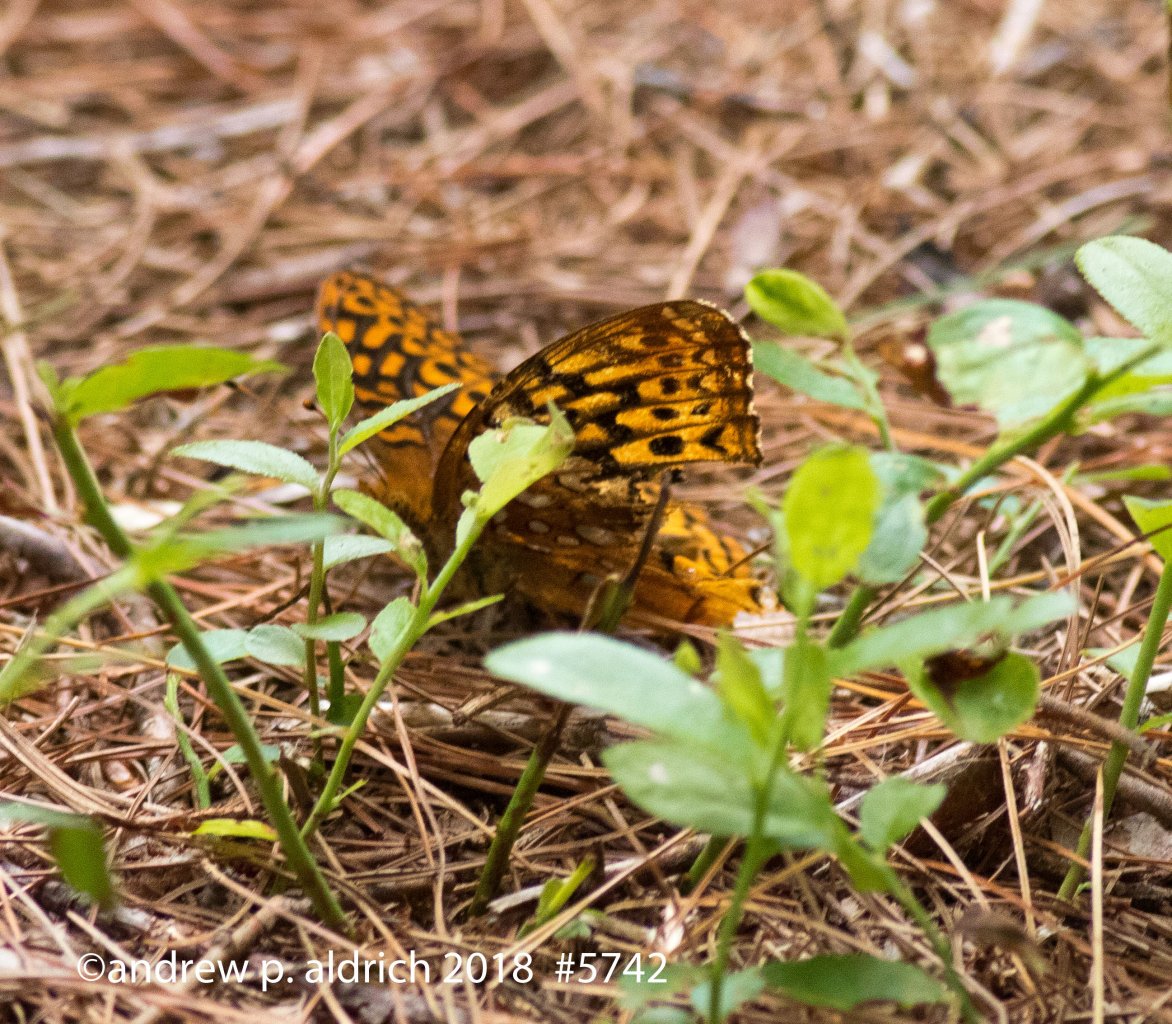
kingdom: Animalia
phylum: Arthropoda
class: Insecta
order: Lepidoptera
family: Nymphalidae
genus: Speyeria
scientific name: Speyeria cybele
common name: Great Spangled Fritillary
